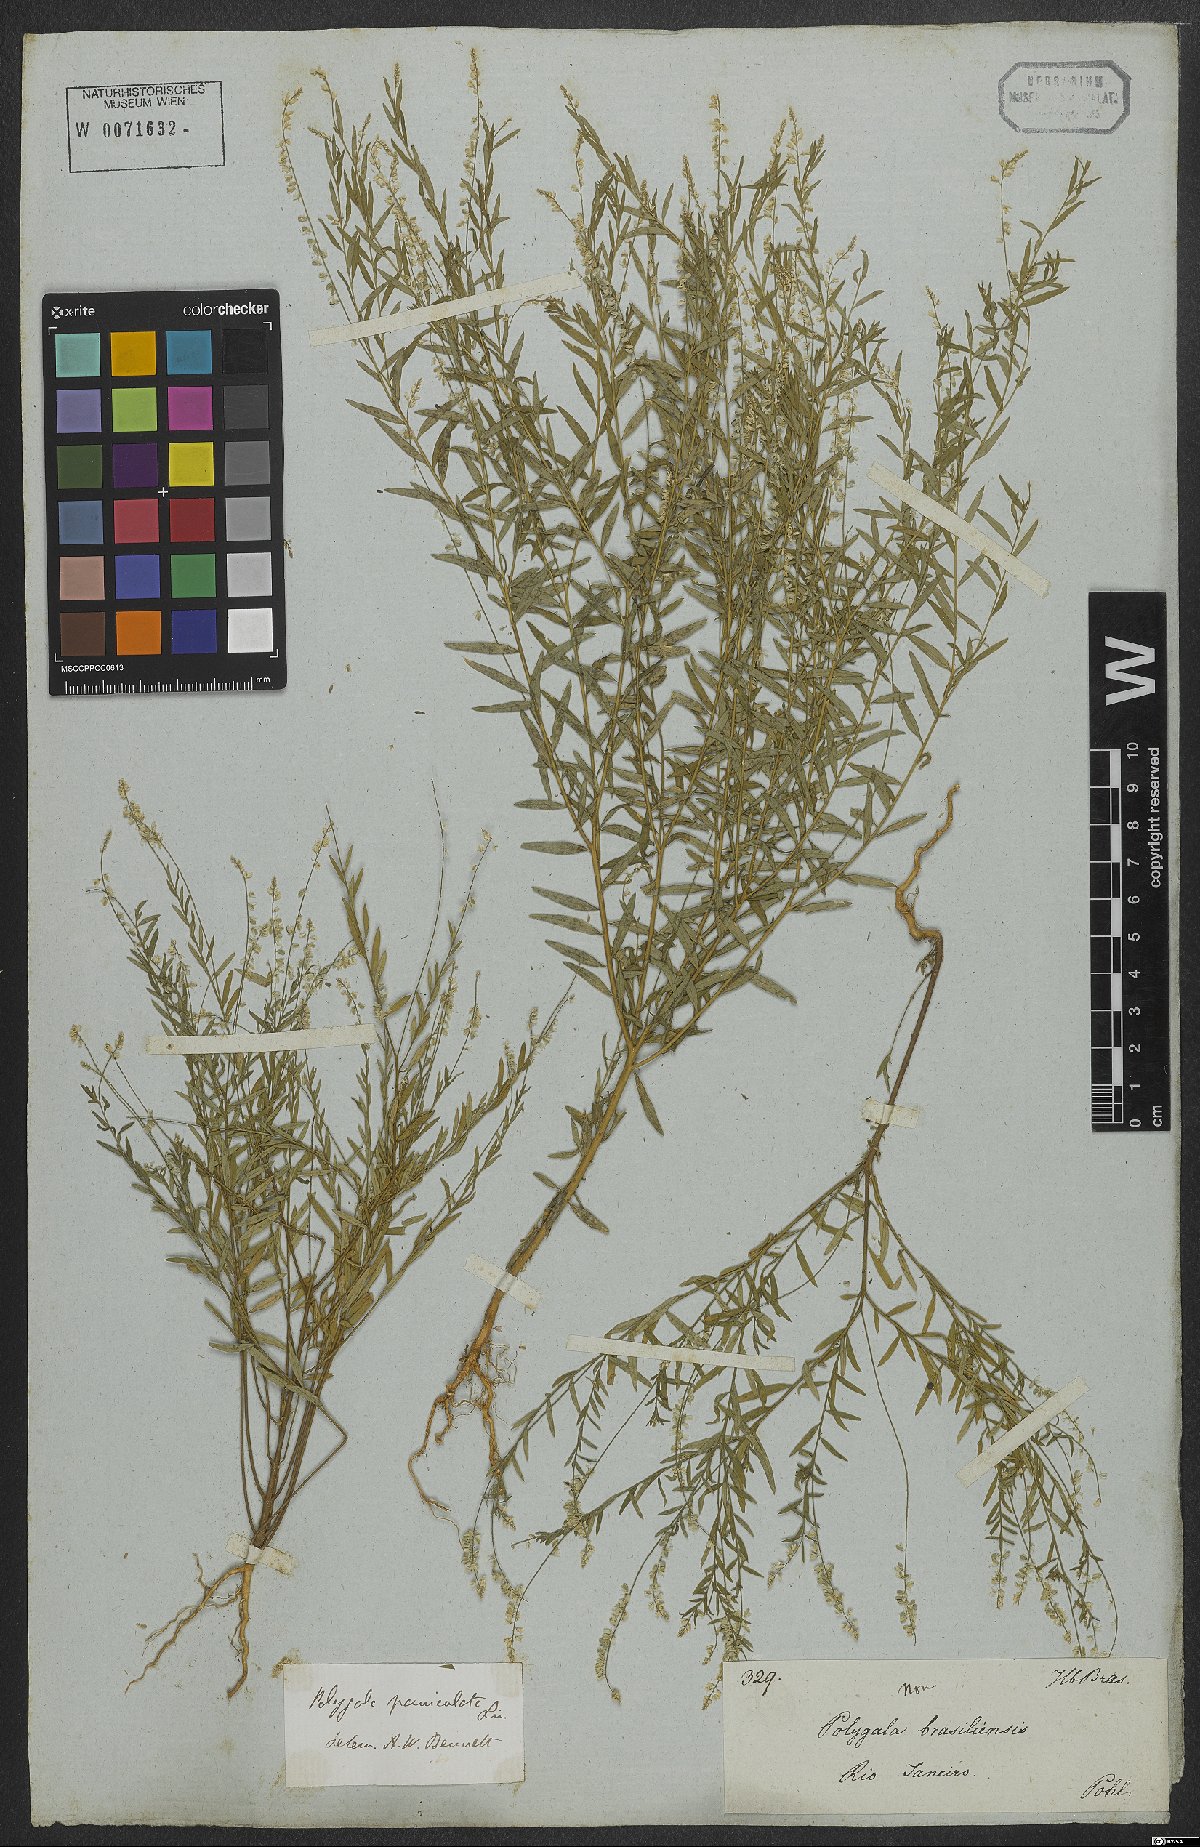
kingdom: Plantae
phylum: Tracheophyta
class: Magnoliopsida
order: Fabales
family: Polygalaceae
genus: Polygala
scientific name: Polygala exilis
